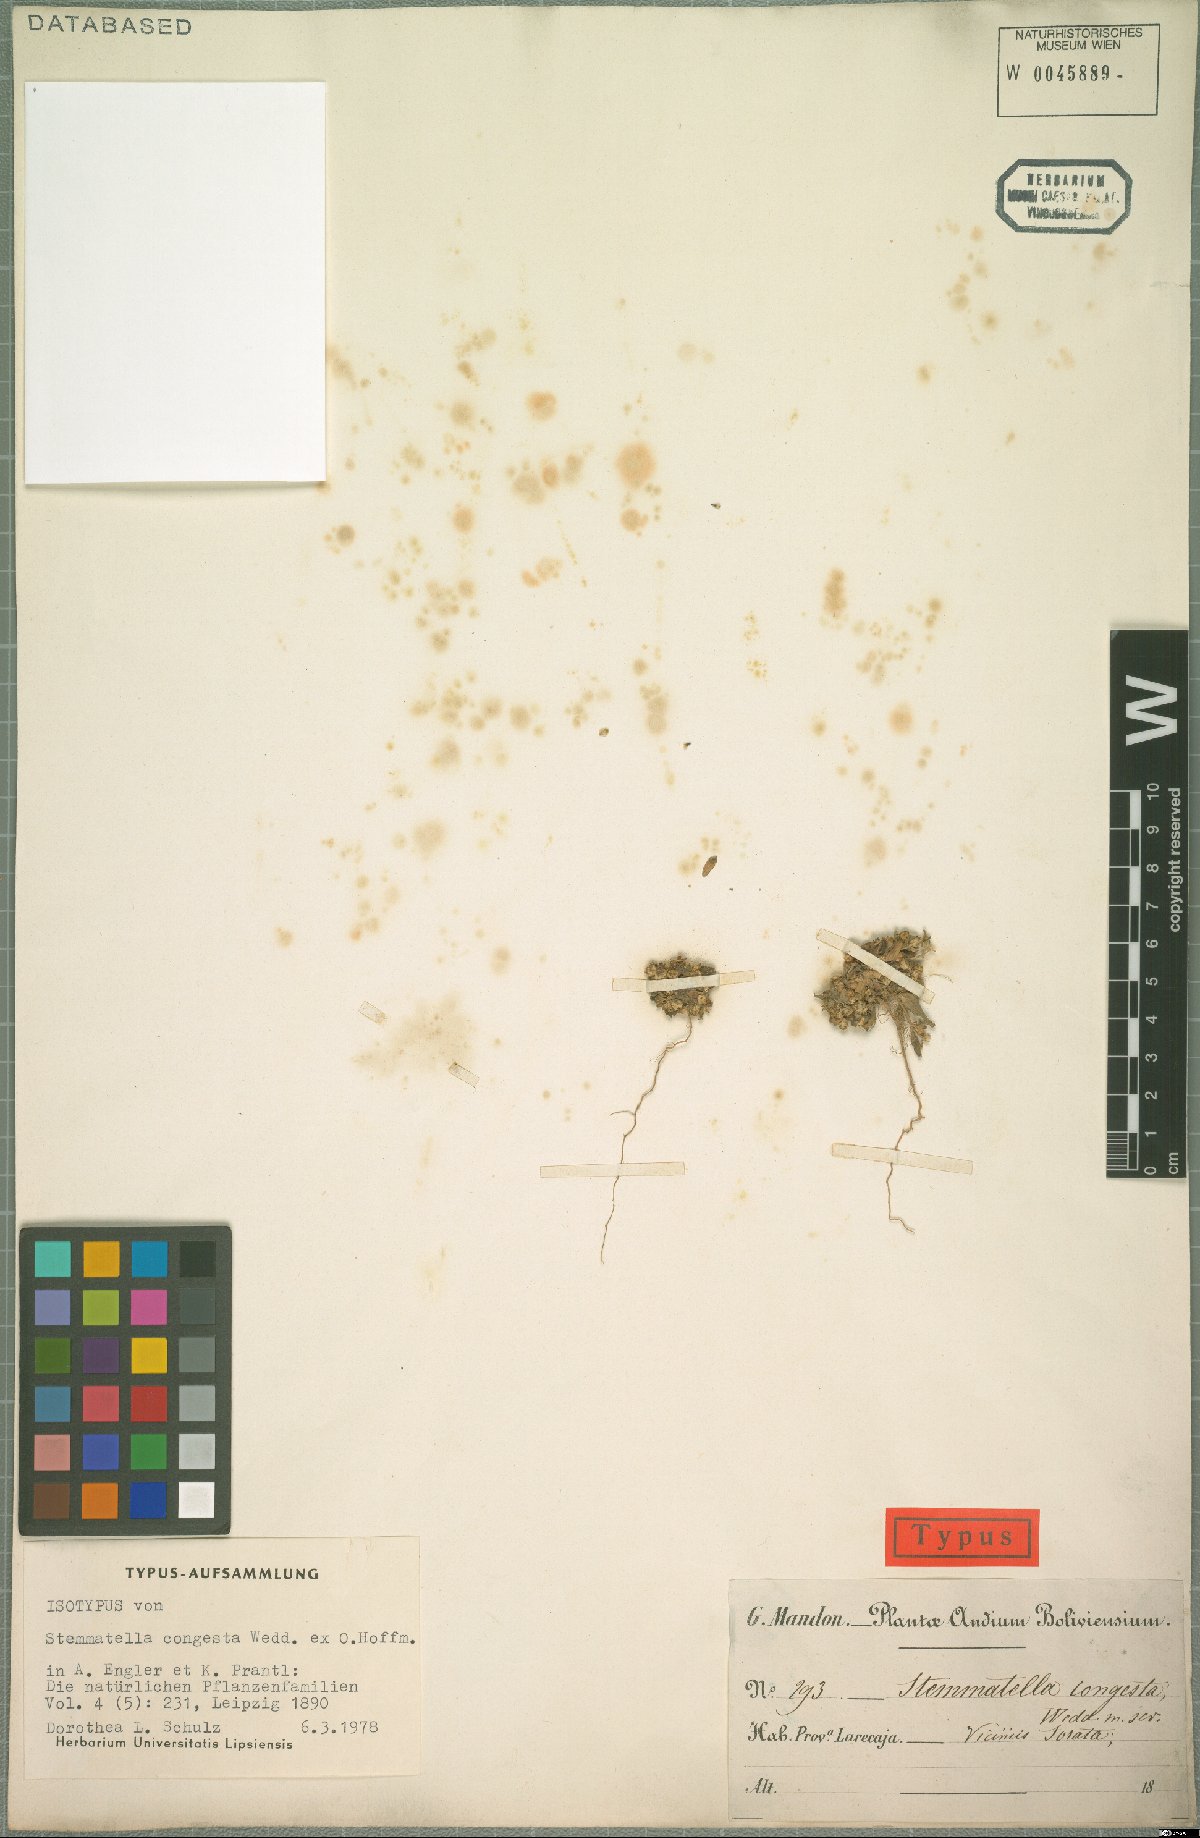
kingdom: Plantae
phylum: Tracheophyta
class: Magnoliopsida
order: Asterales
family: Asteraceae
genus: Galinsoga
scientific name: Galinsoga Stemmatella congesta
